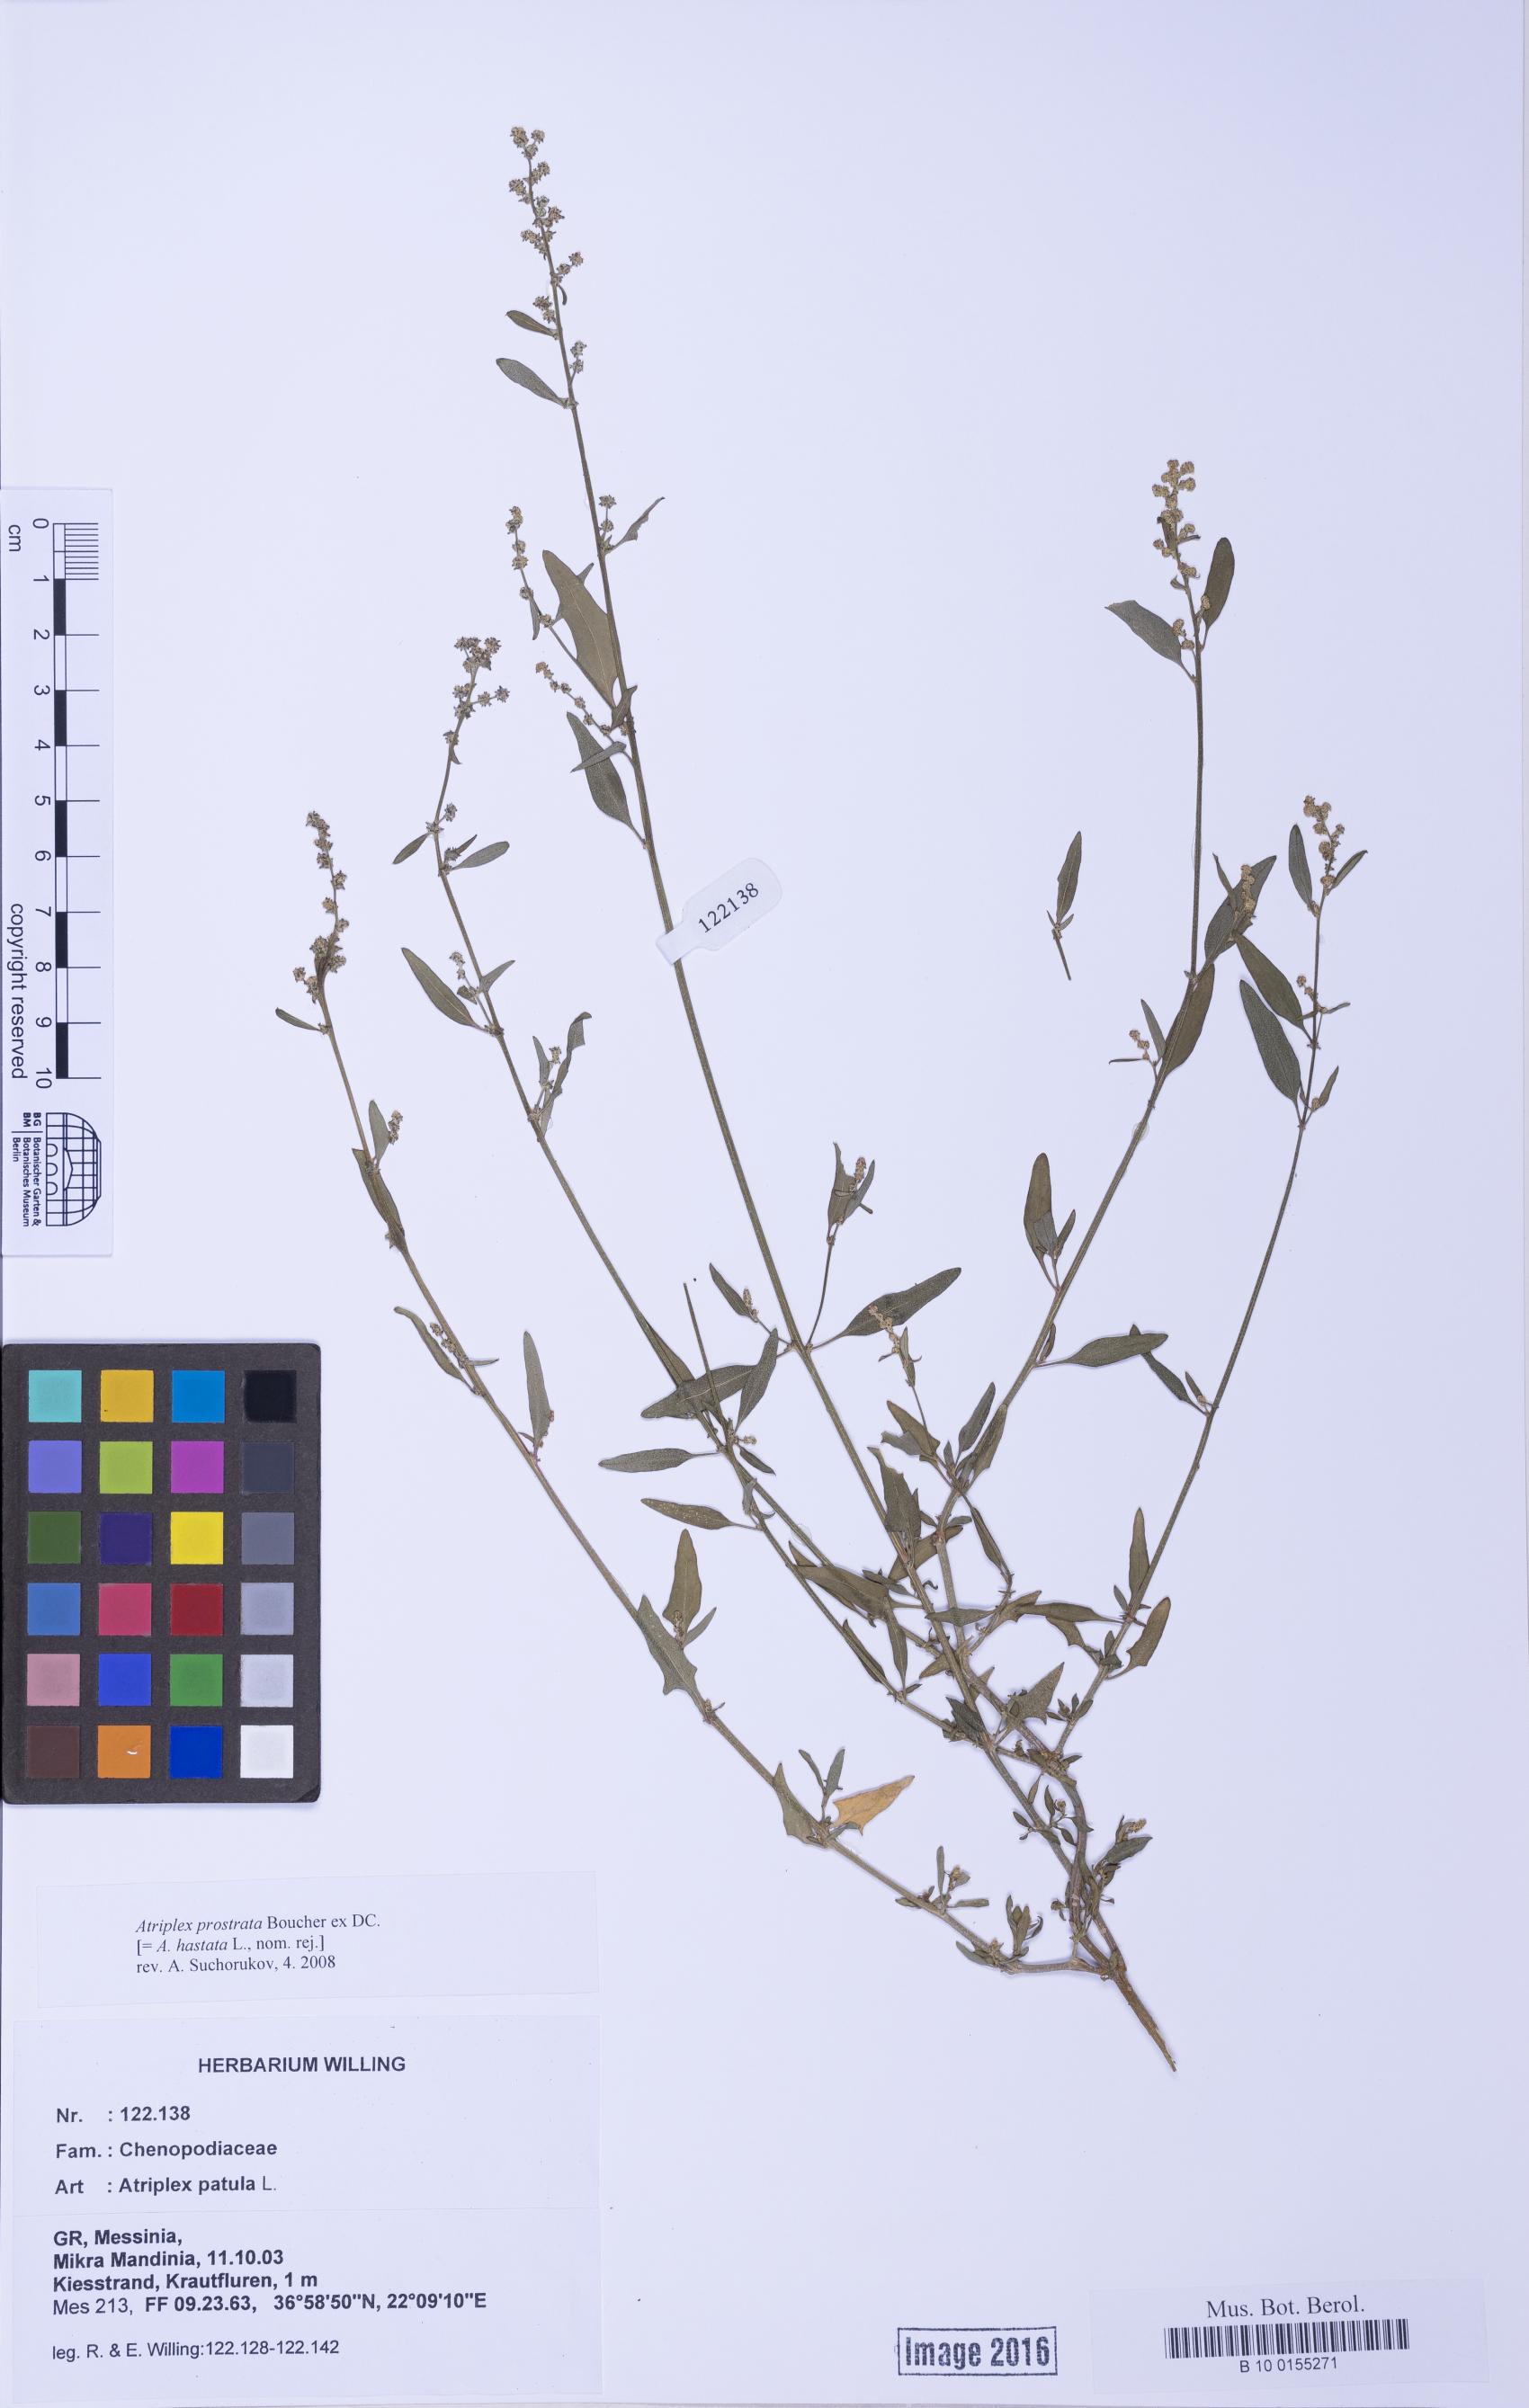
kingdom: Plantae
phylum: Tracheophyta
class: Magnoliopsida
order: Caryophyllales
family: Amaranthaceae
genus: Atriplex
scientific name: Atriplex prostrata
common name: Spear-leaved orache
